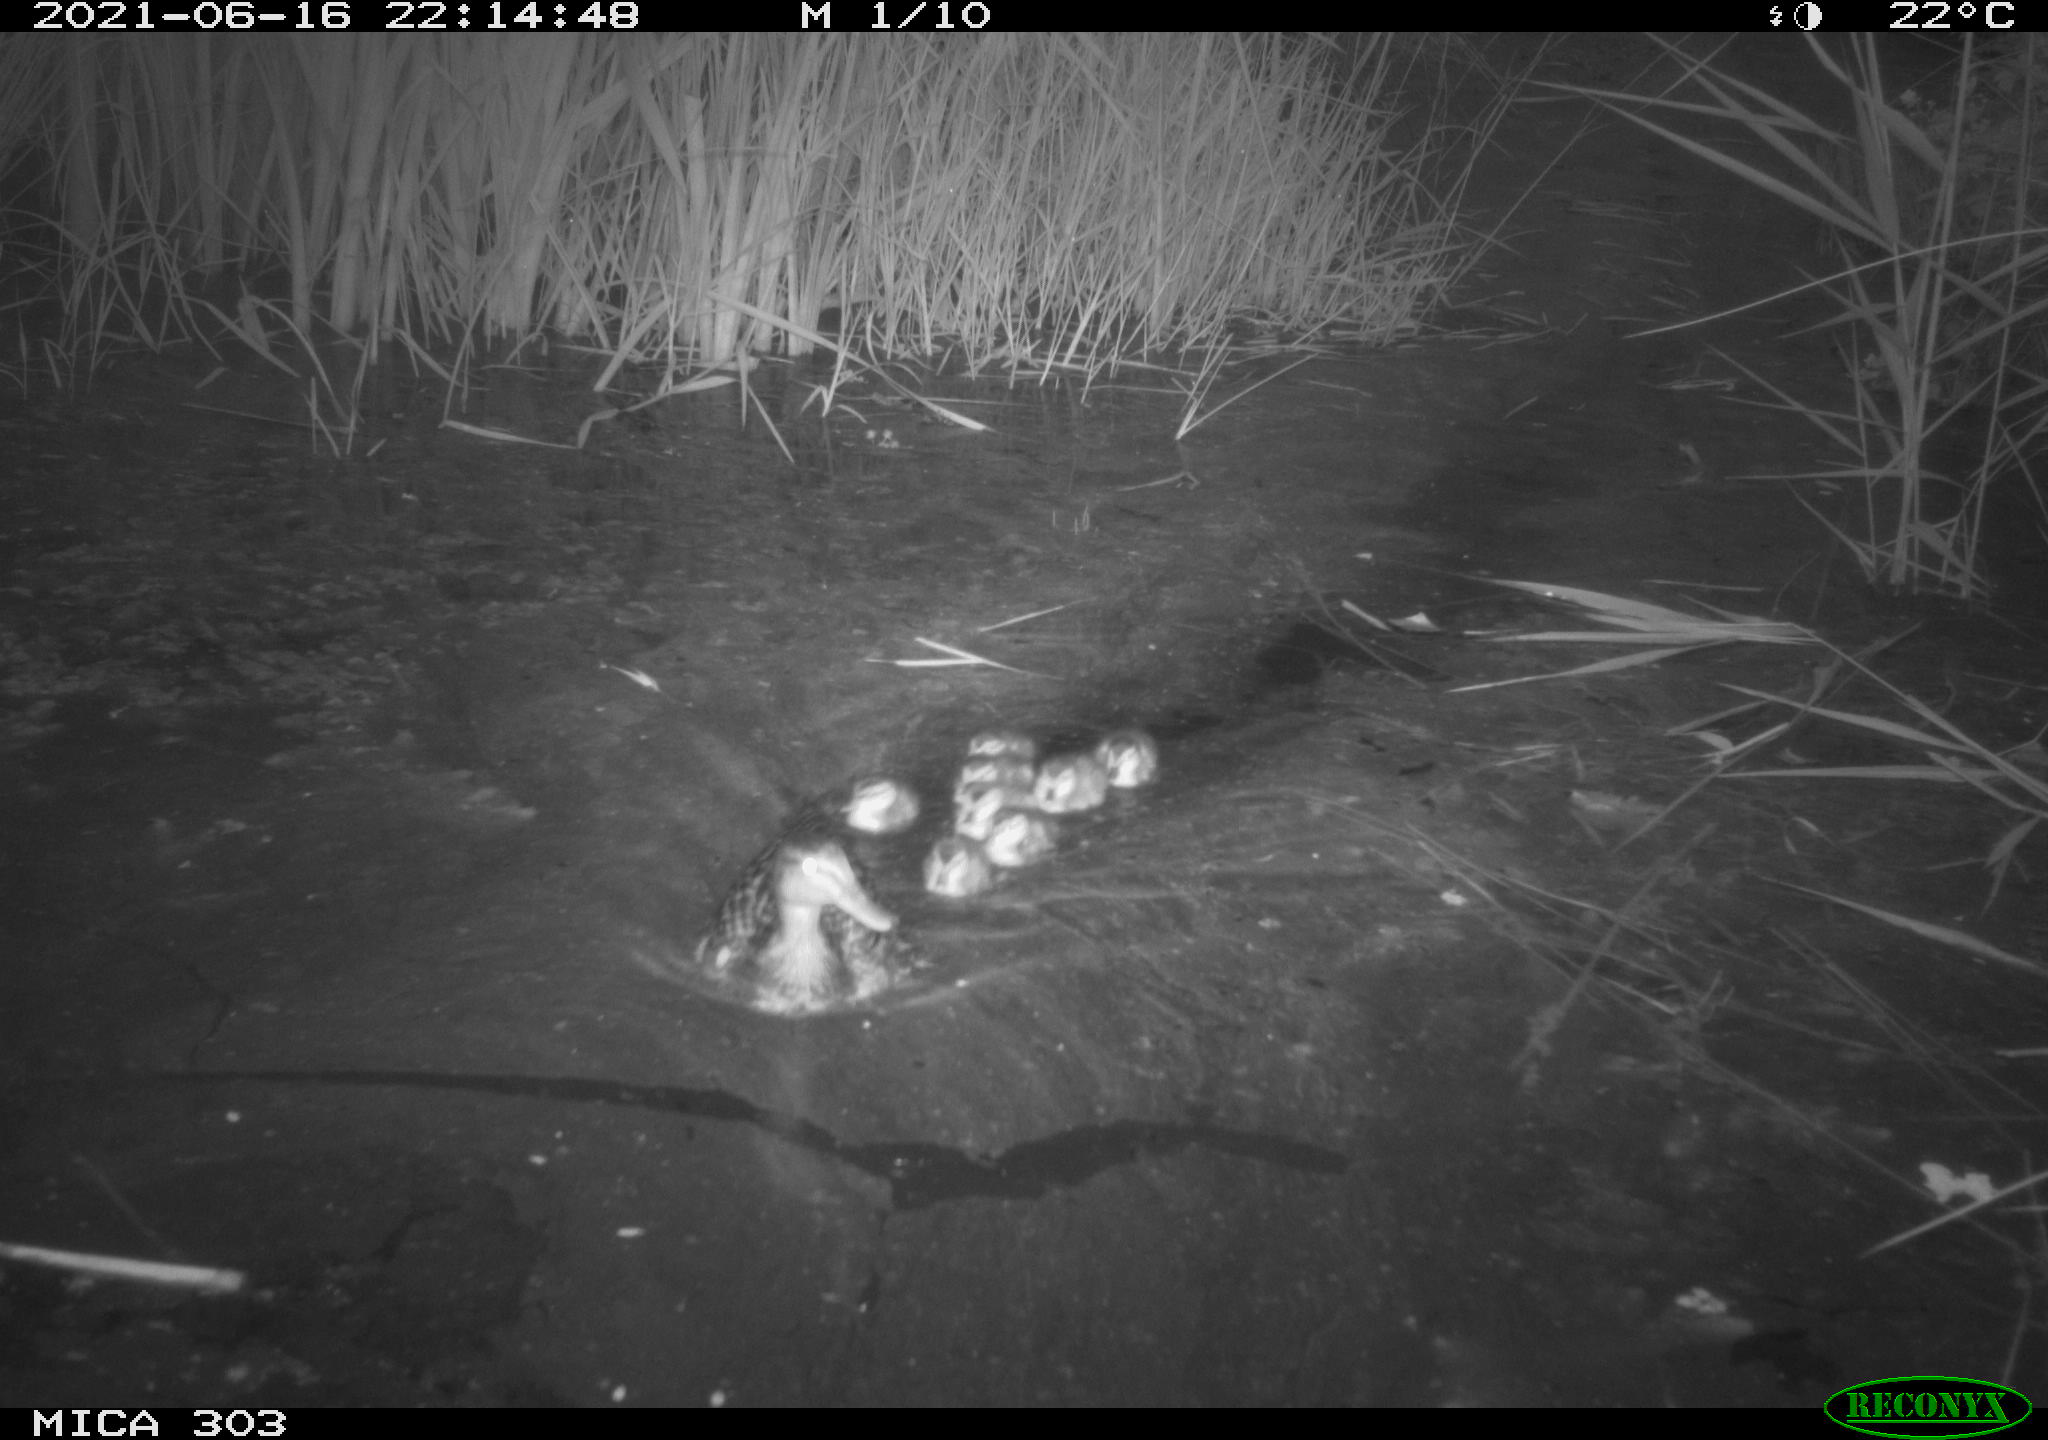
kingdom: Animalia
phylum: Chordata
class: Aves
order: Anseriformes
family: Anatidae
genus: Anas
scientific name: Anas platyrhynchos
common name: Mallard
